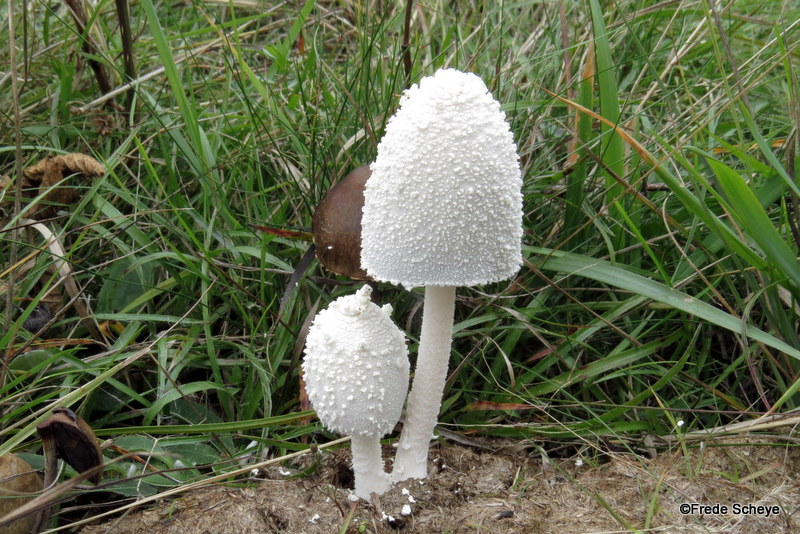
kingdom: Fungi
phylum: Basidiomycota
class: Agaricomycetes
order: Agaricales
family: Psathyrellaceae
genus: Coprinopsis
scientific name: Coprinopsis nivea
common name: snehvid blækhat
